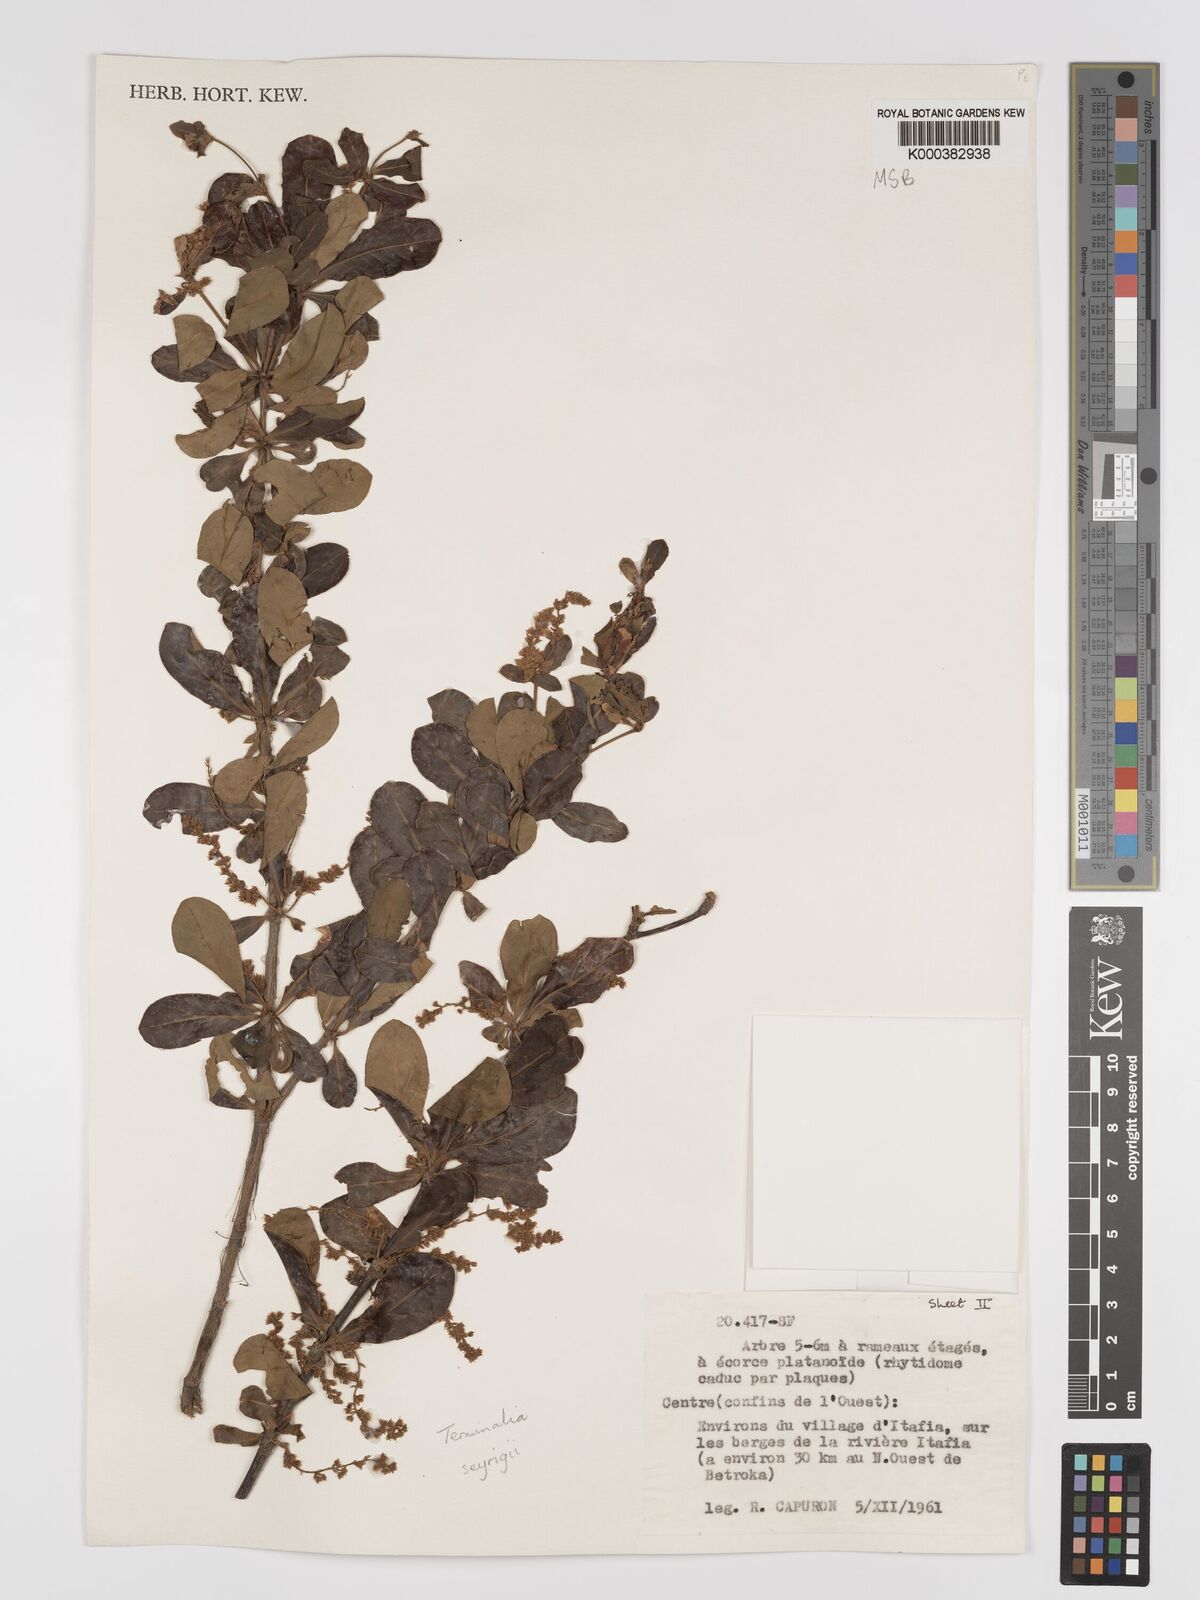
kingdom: Plantae
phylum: Tracheophyta
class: Magnoliopsida
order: Myrtales
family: Combretaceae
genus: Terminalia
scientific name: Terminalia seyrigii
